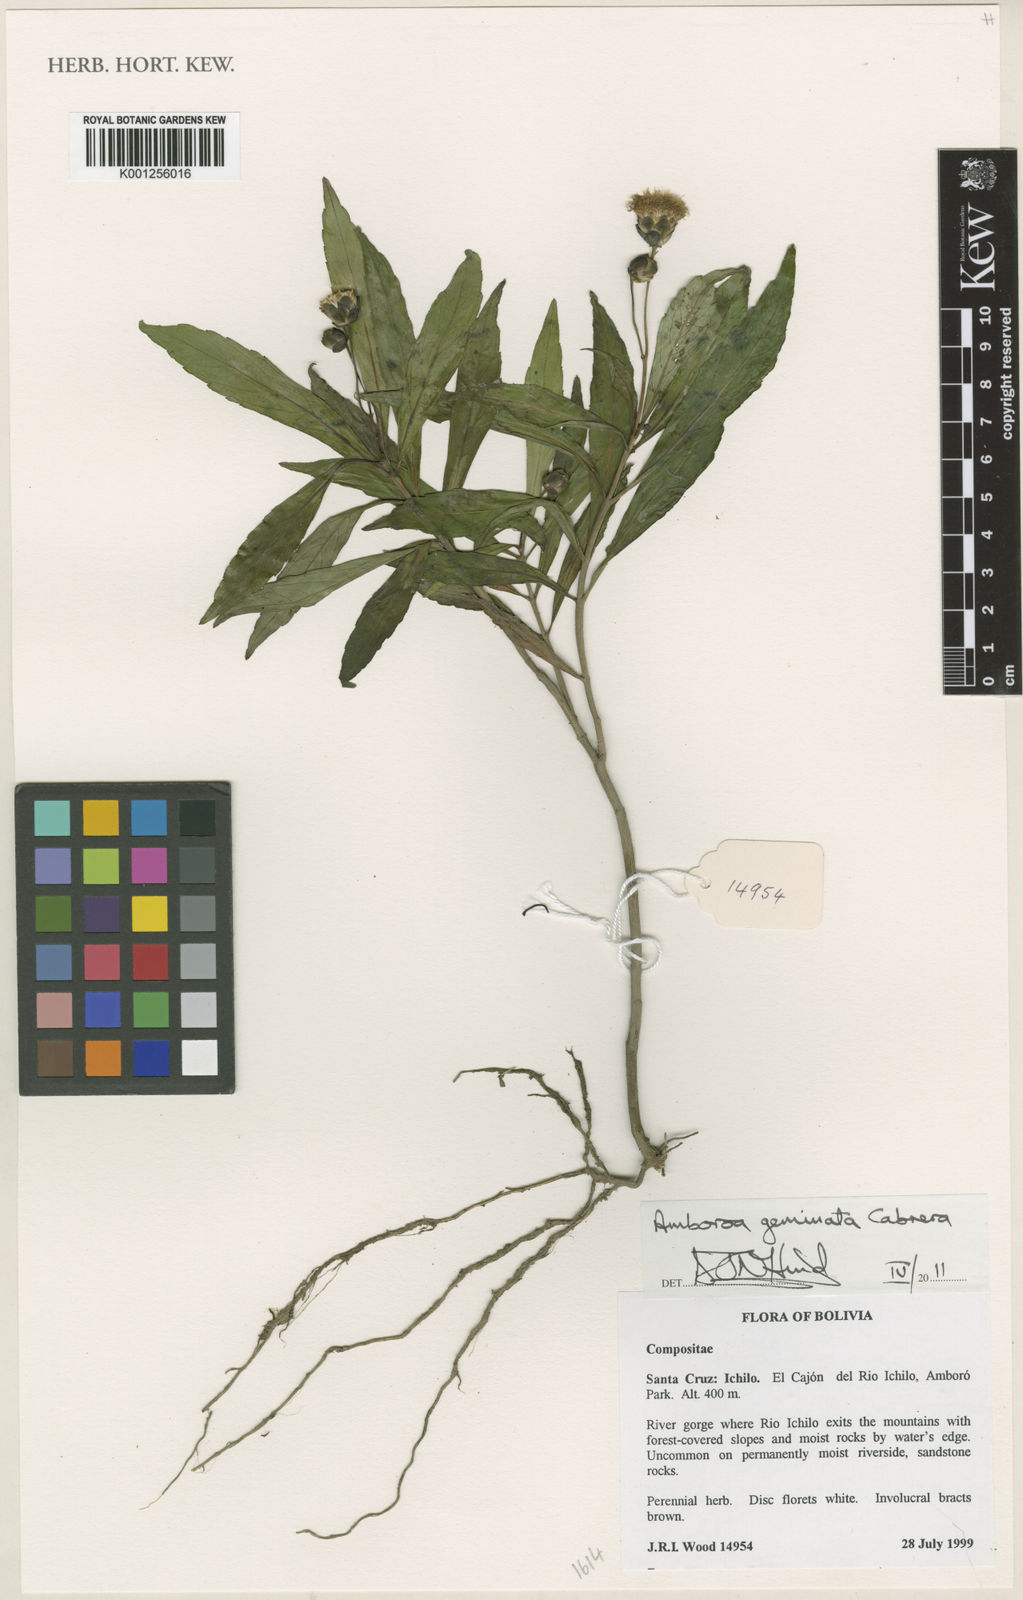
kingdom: Plantae
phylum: Tracheophyta
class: Magnoliopsida
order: Asterales
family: Asteraceae
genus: Amboroa
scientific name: Amboroa geminata
